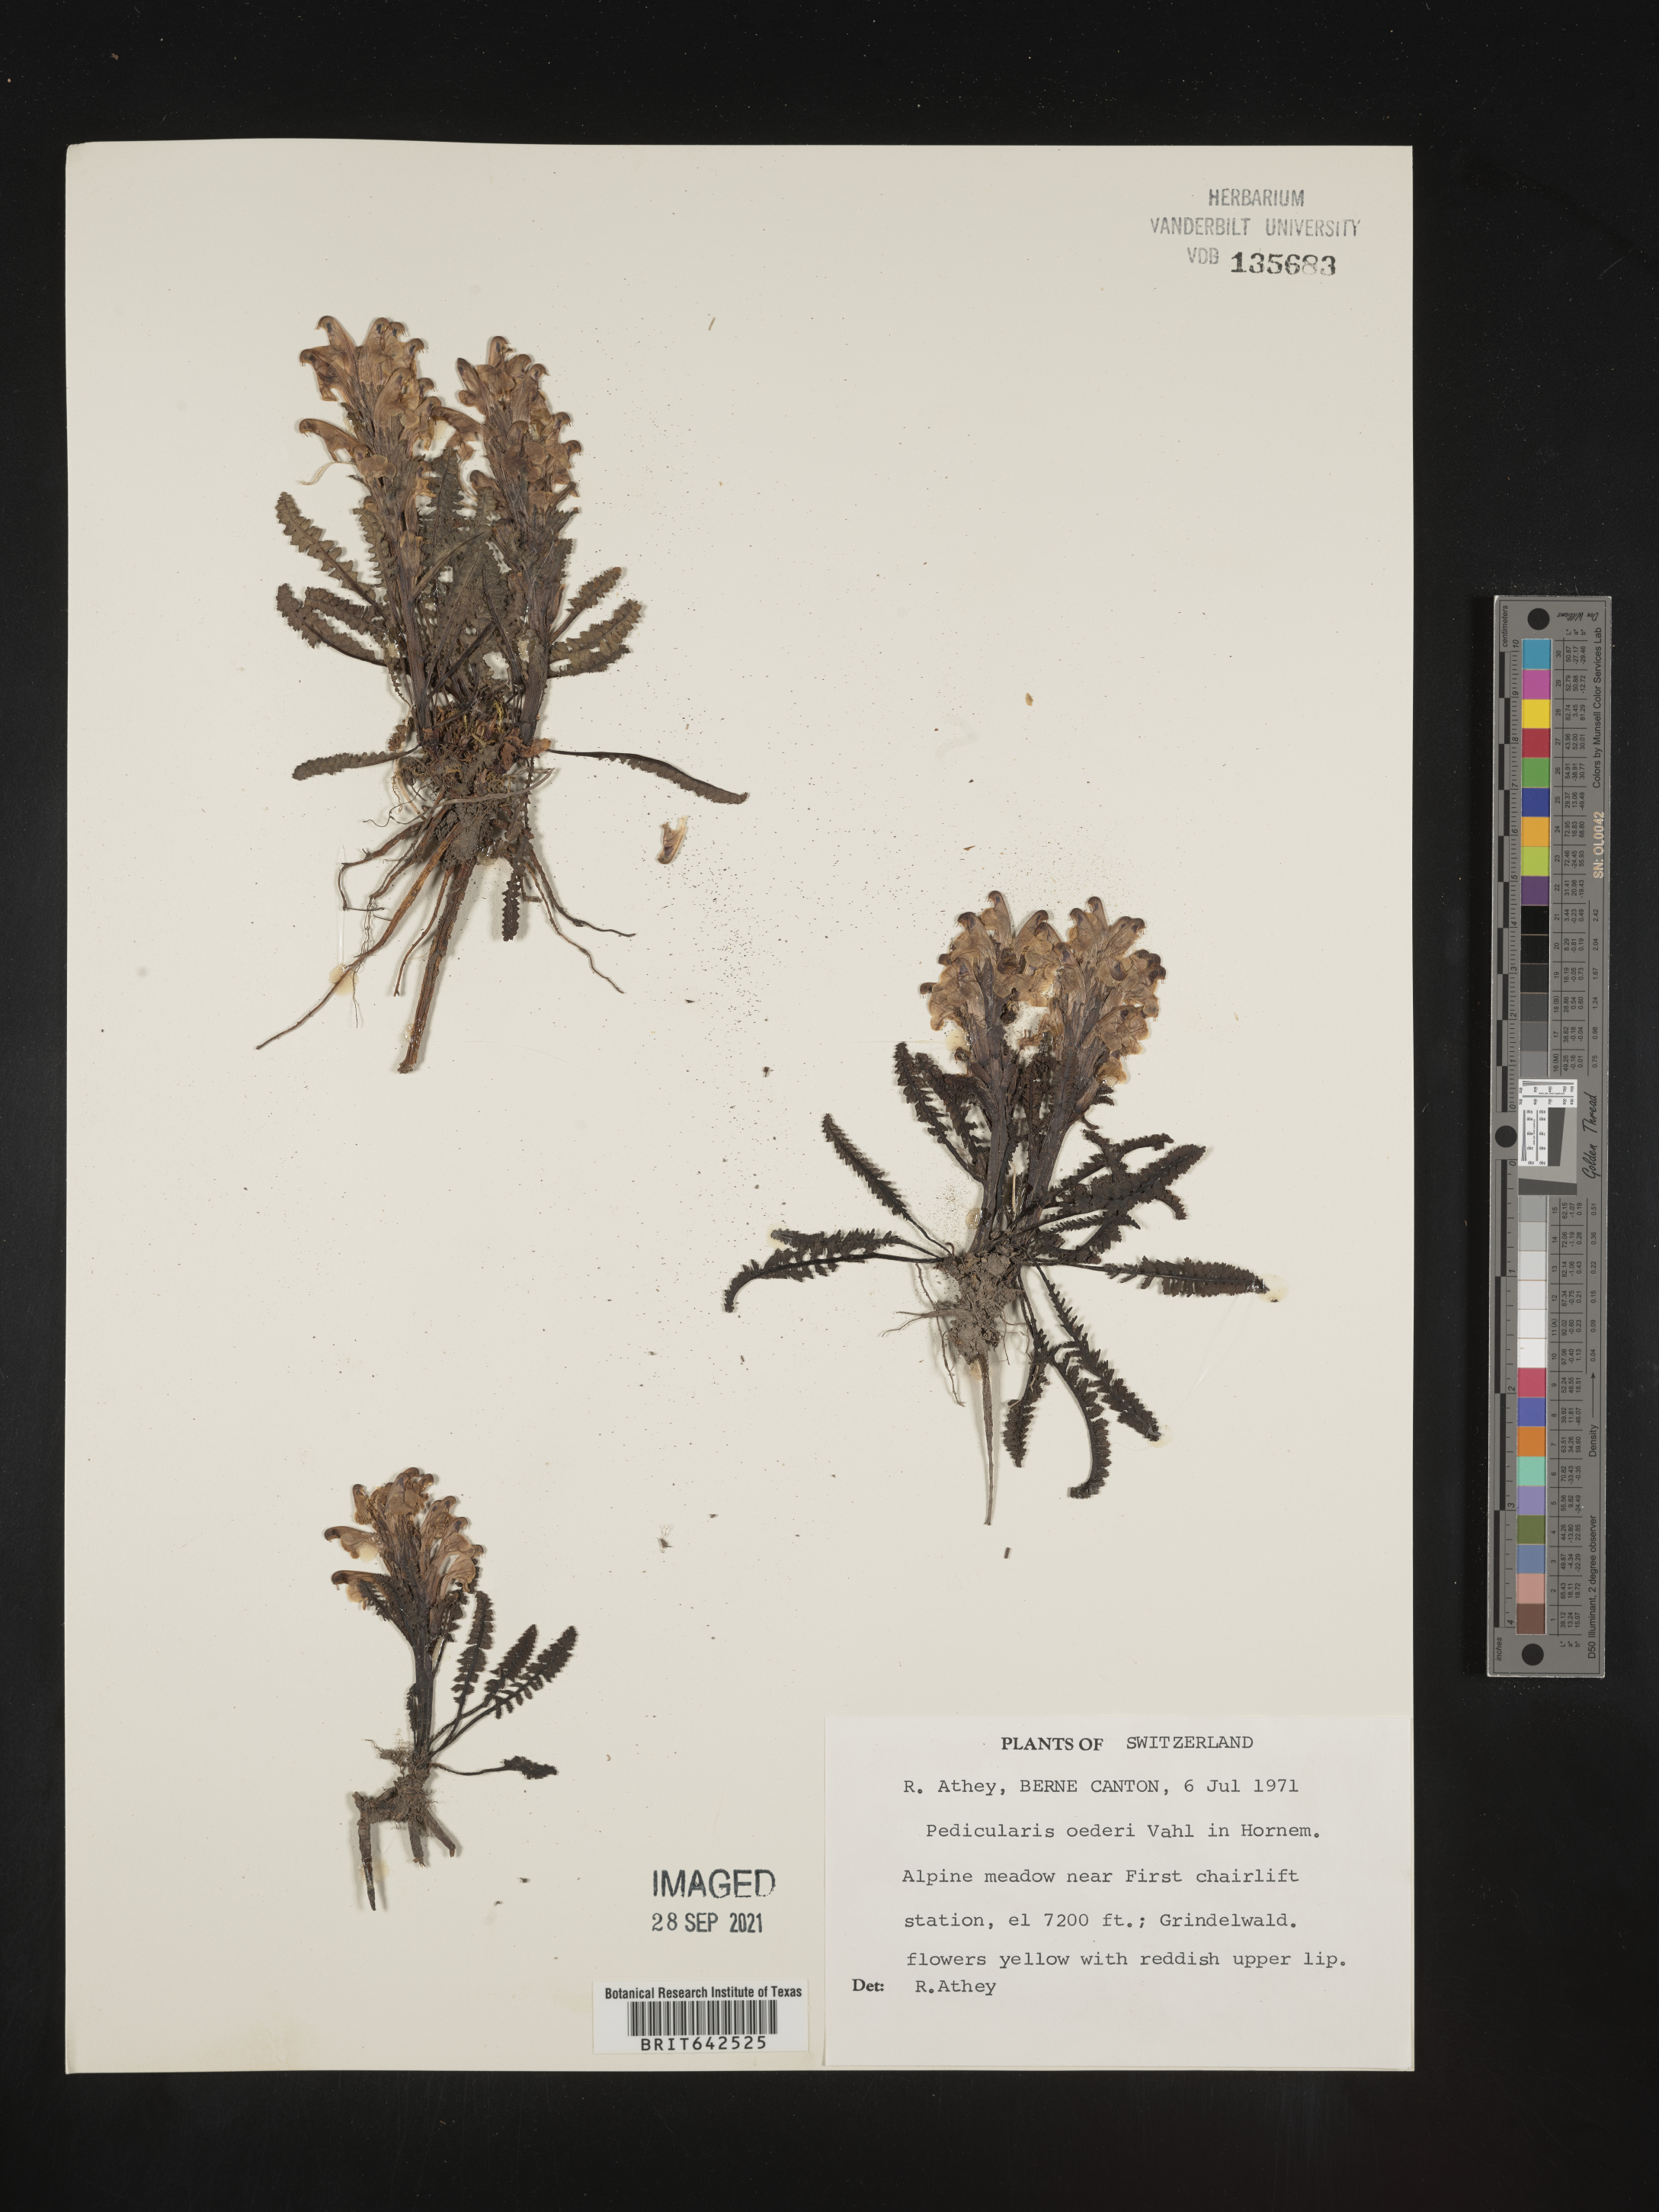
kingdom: Plantae
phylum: Tracheophyta
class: Magnoliopsida
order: Lamiales
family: Orobanchaceae
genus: Pedicularis
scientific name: Pedicularis
